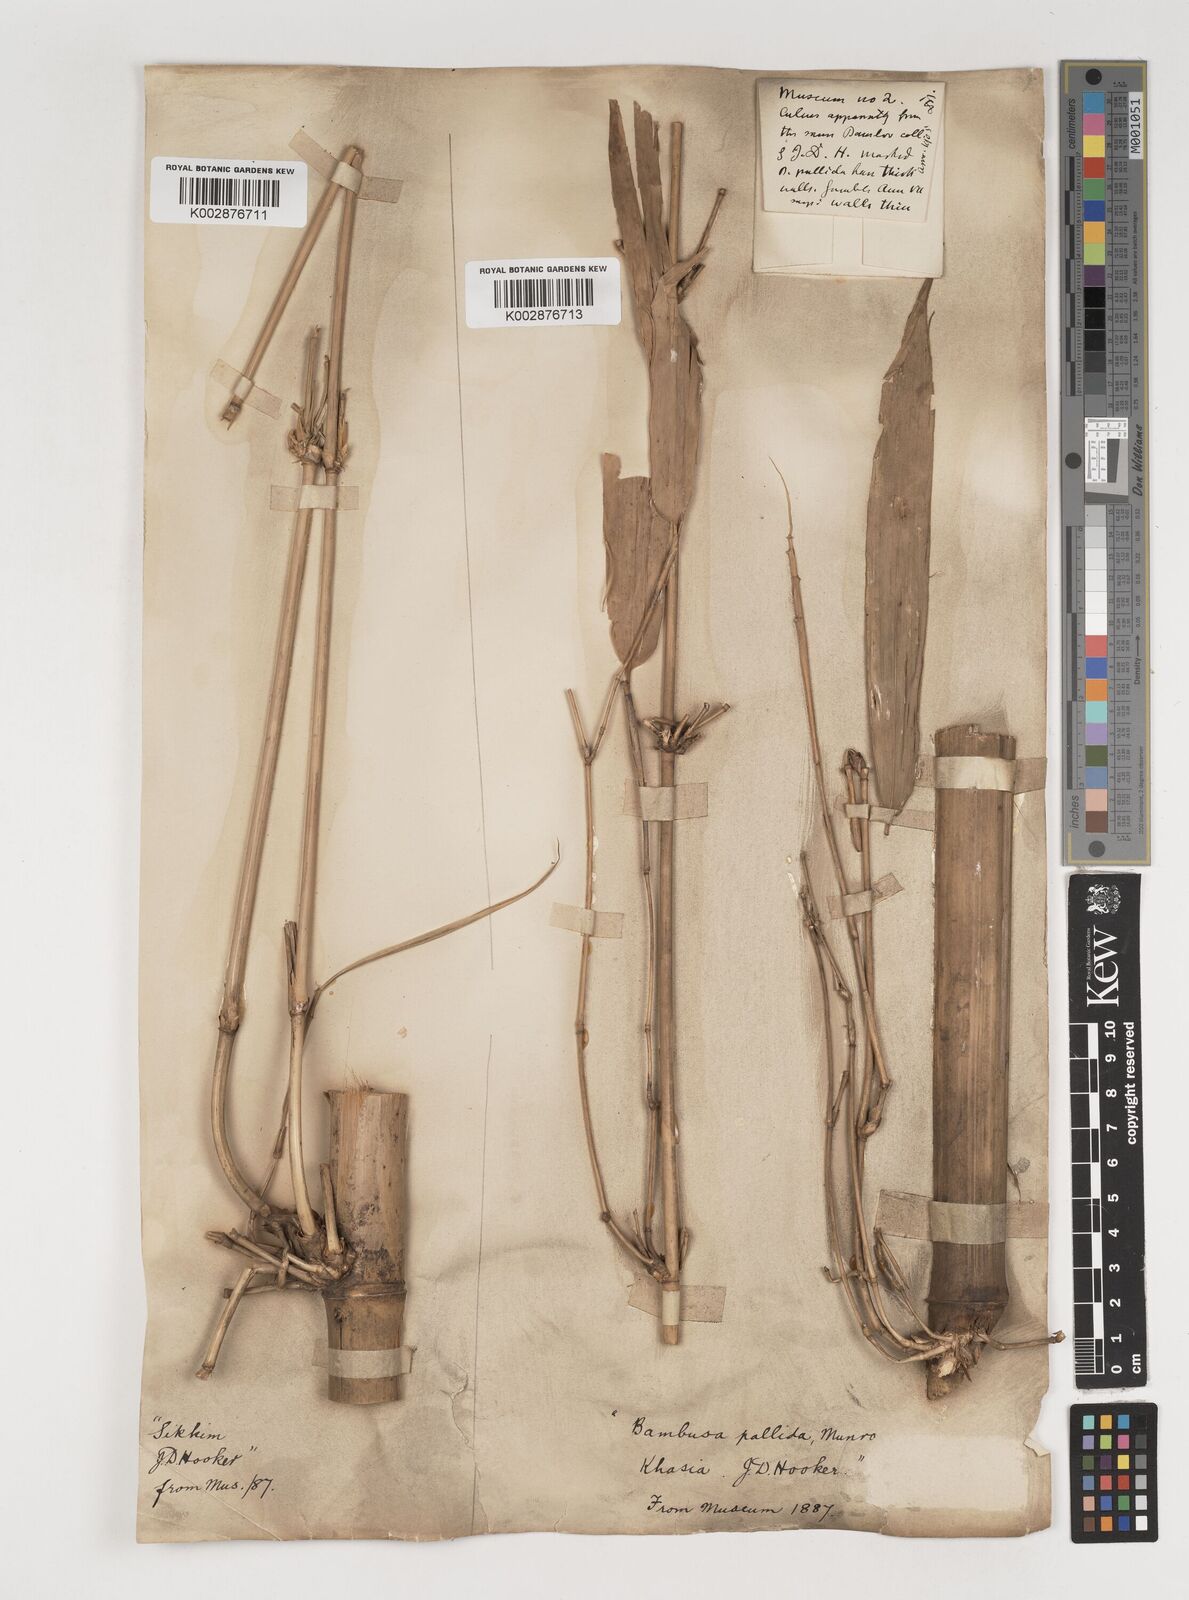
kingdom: Plantae
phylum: Tracheophyta
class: Liliopsida
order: Poales
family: Poaceae
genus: Bambusa
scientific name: Bambusa pallida
